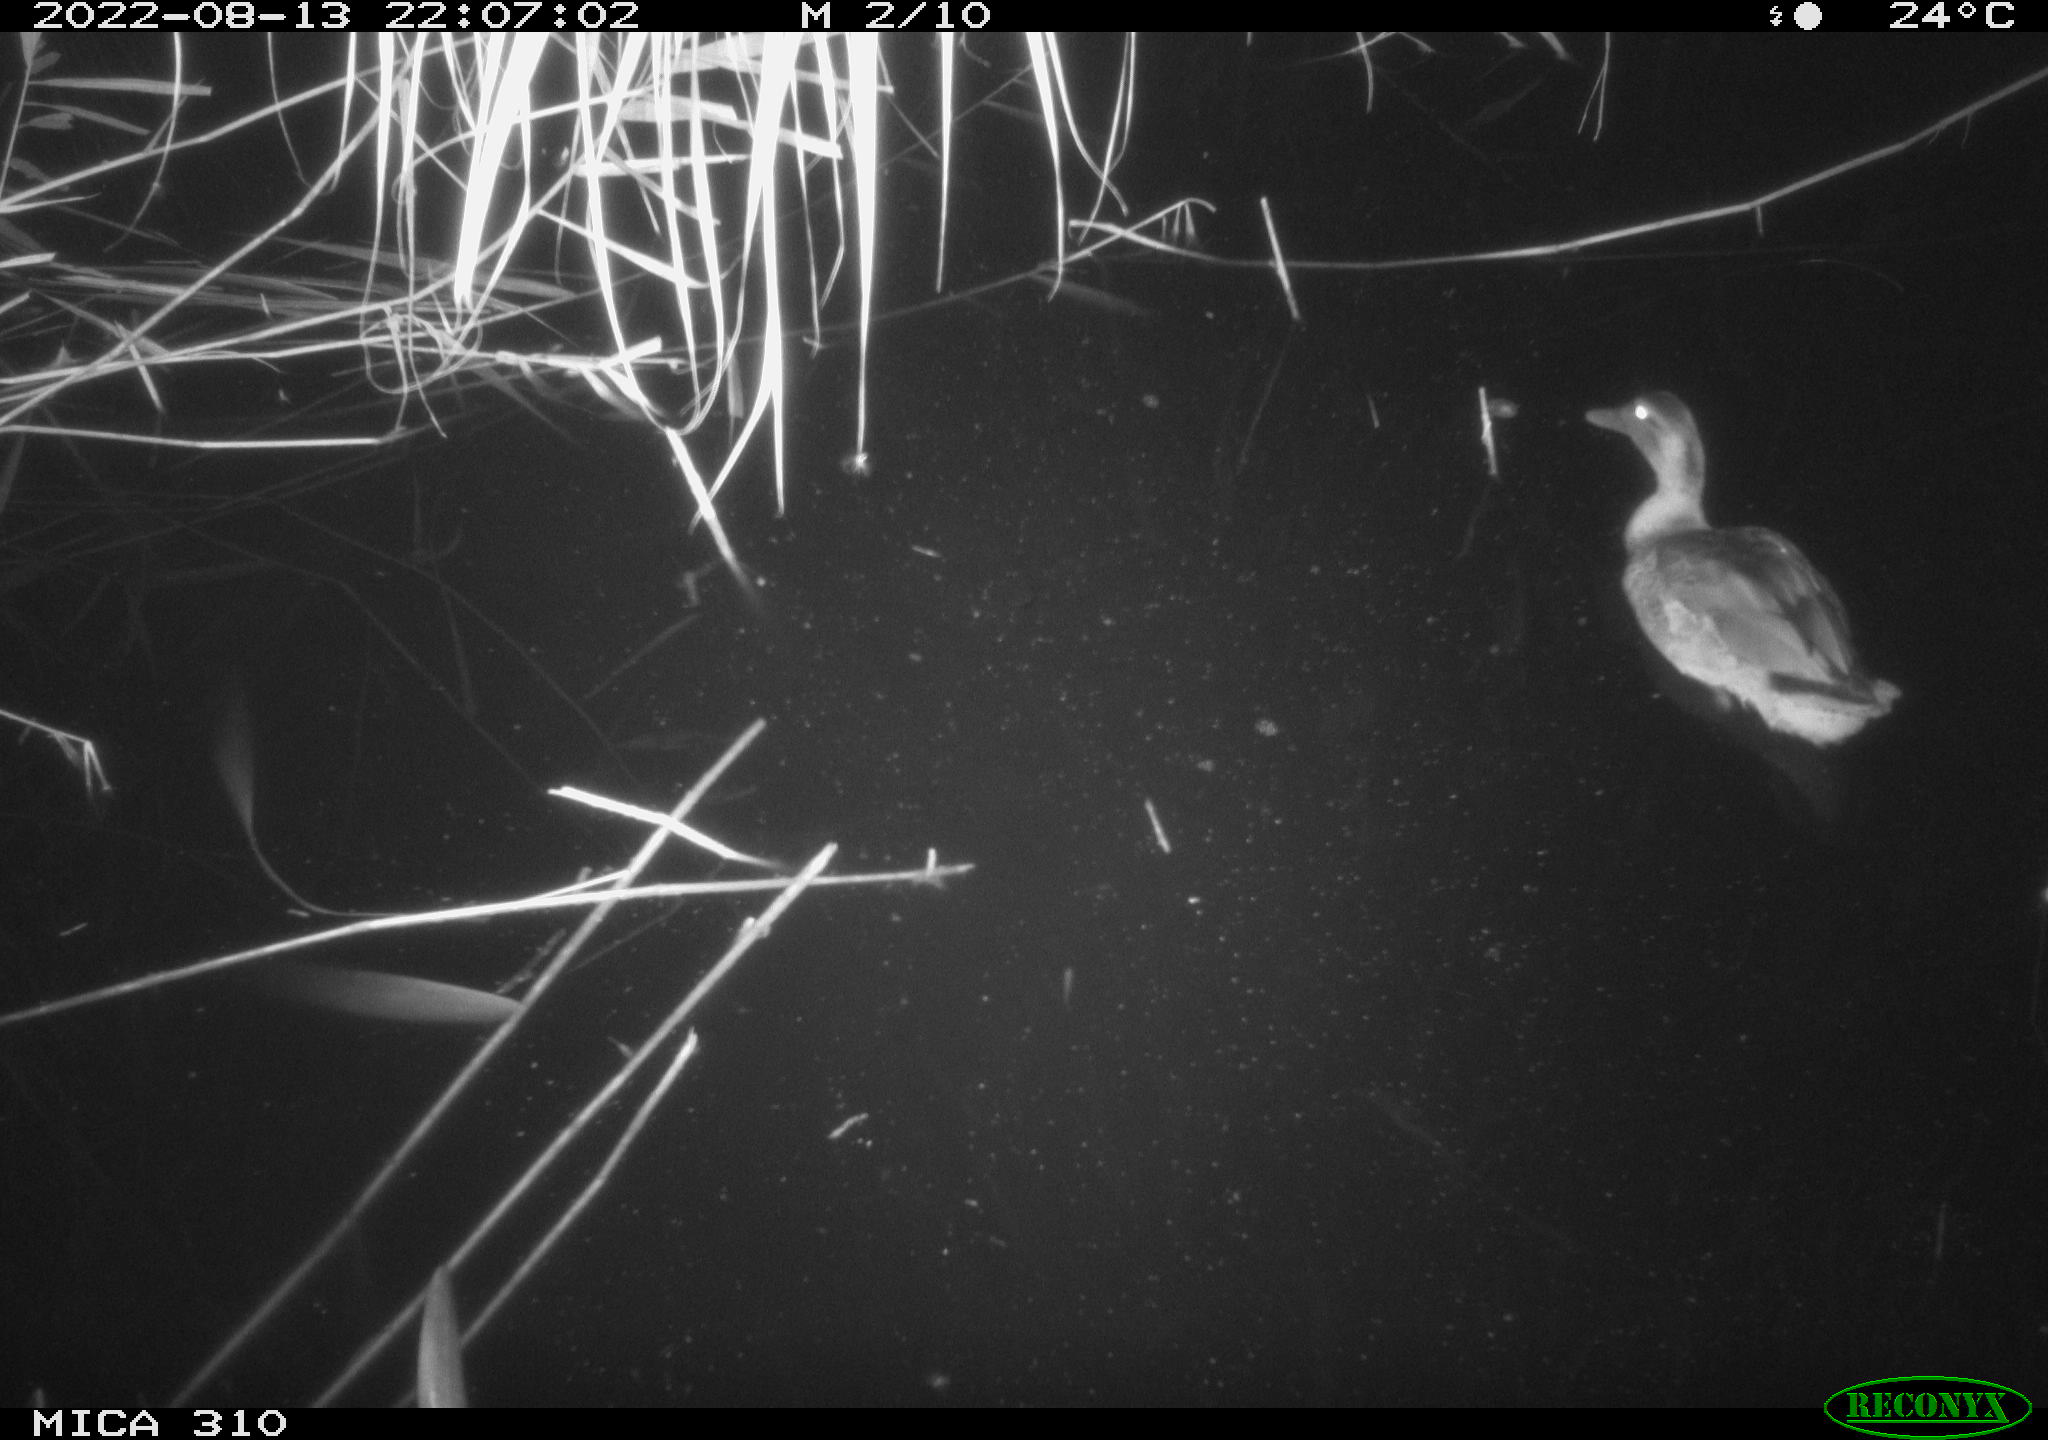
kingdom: Animalia
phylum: Chordata
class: Aves
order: Anseriformes
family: Anatidae
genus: Anas
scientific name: Anas platyrhynchos
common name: Mallard
